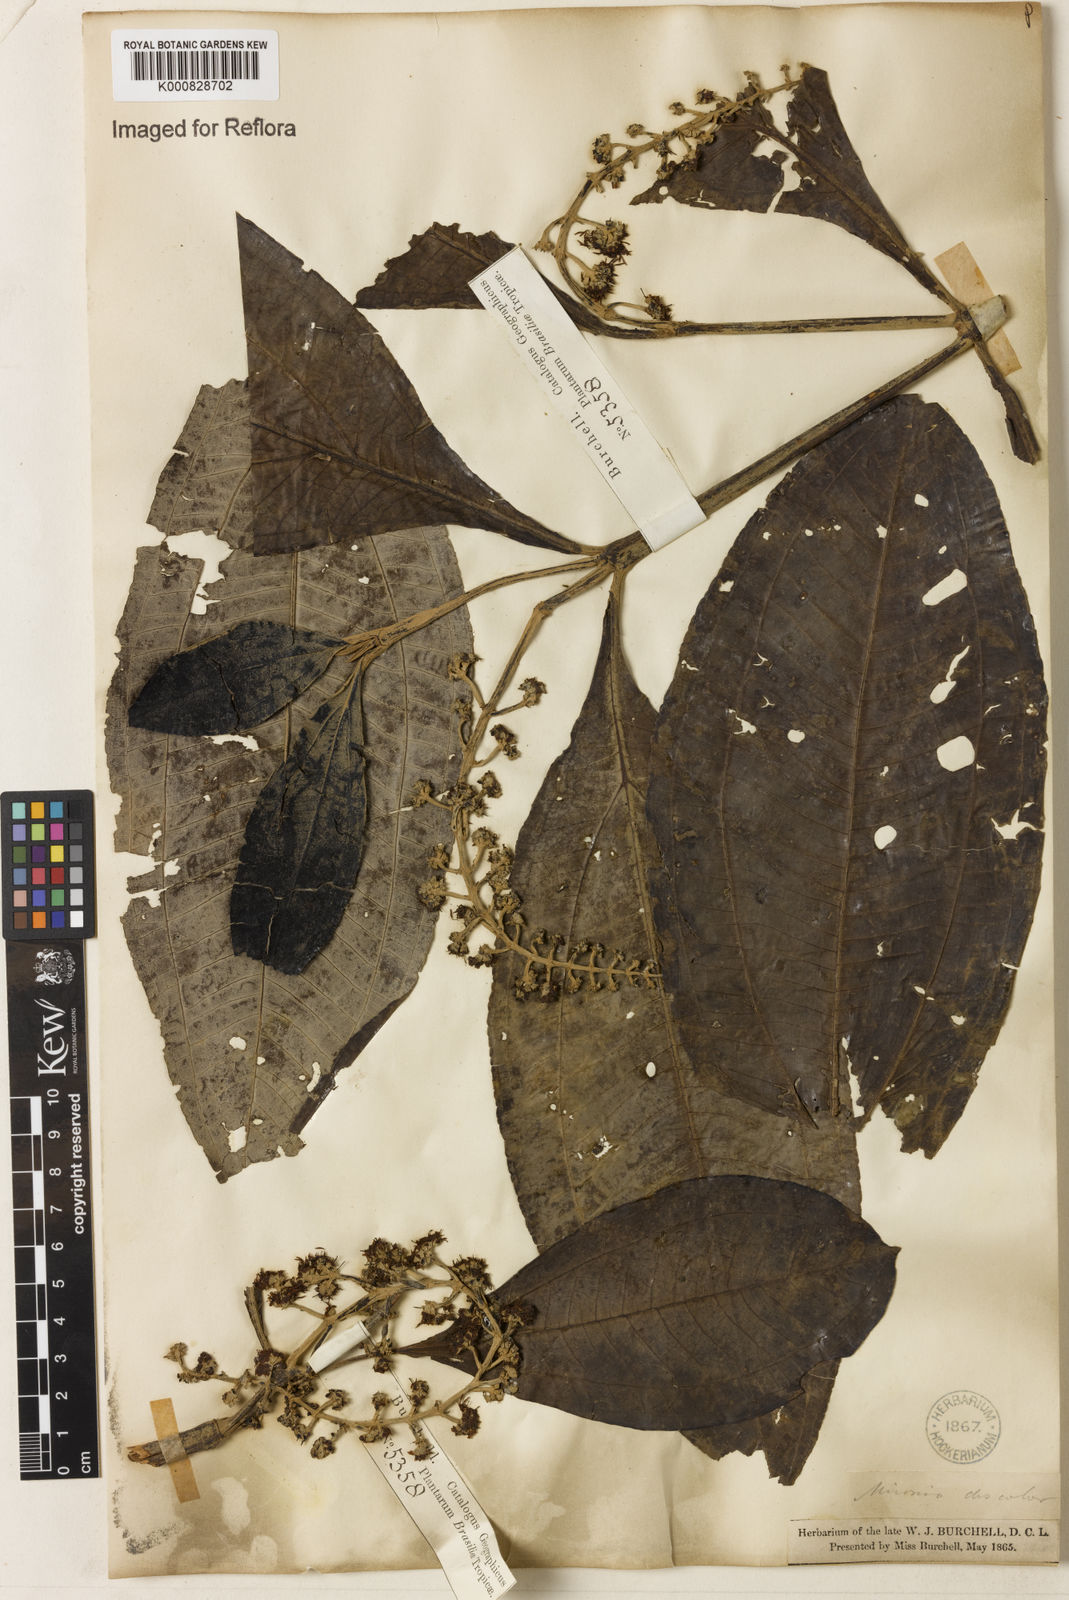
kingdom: Plantae
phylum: Tracheophyta
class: Magnoliopsida
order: Myrtales
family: Melastomataceae
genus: Miconia
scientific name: Miconia discolor
